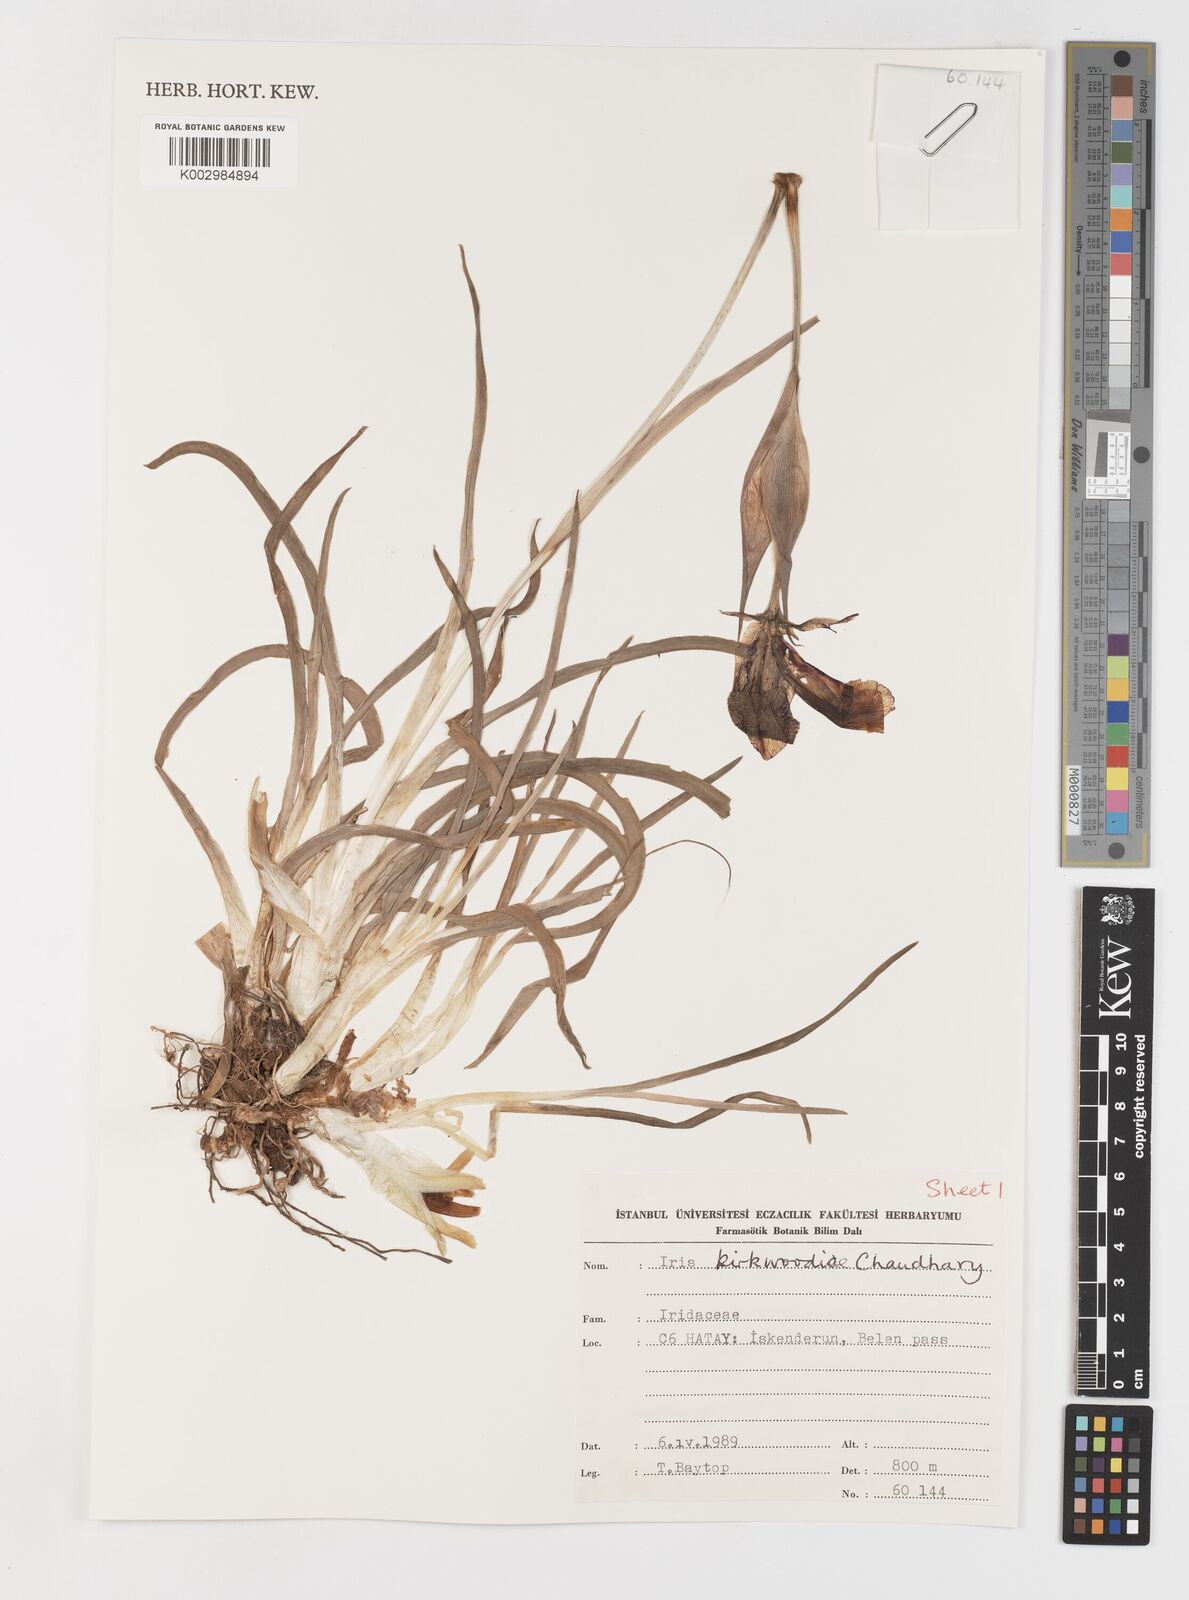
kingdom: Plantae
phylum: Tracheophyta
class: Liliopsida
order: Asparagales
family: Iridaceae
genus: Iris
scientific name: Iris kirkwoodiae
